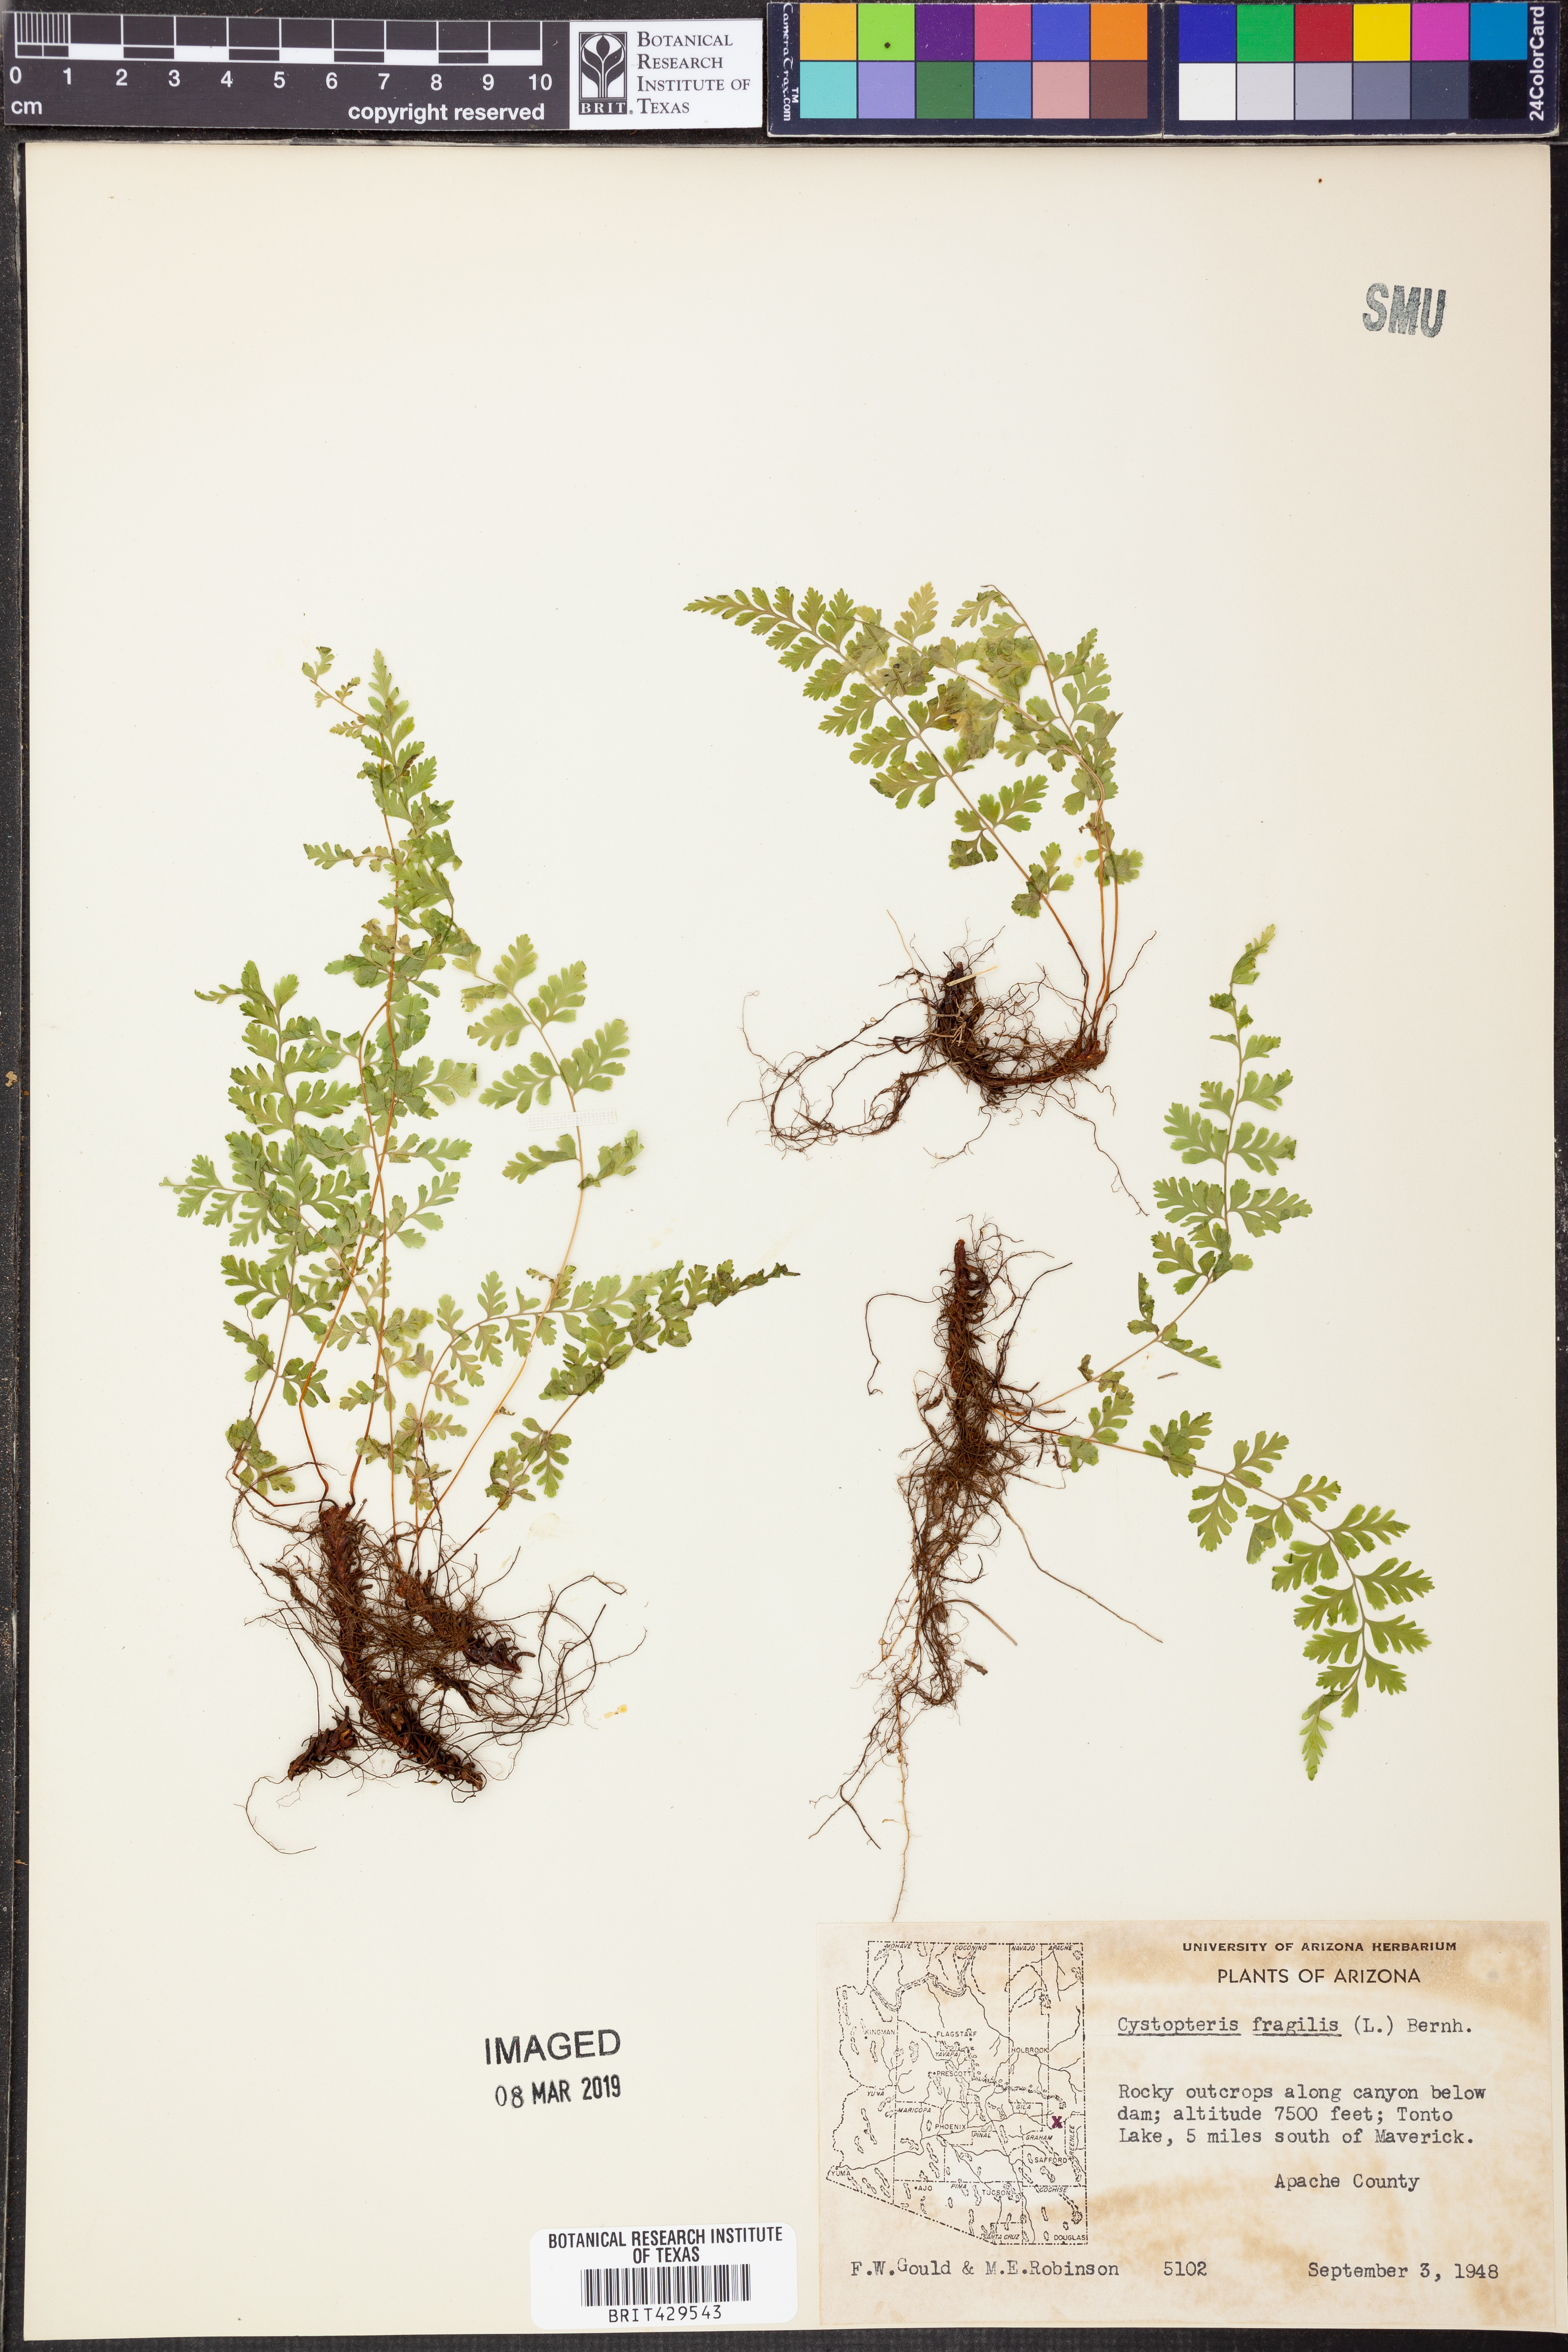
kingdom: Plantae
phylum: Tracheophyta
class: Polypodiopsida
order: Polypodiales
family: Cystopteridaceae
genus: Cystopteris
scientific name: Cystopteris fragilis
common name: Brittle bladder fern
